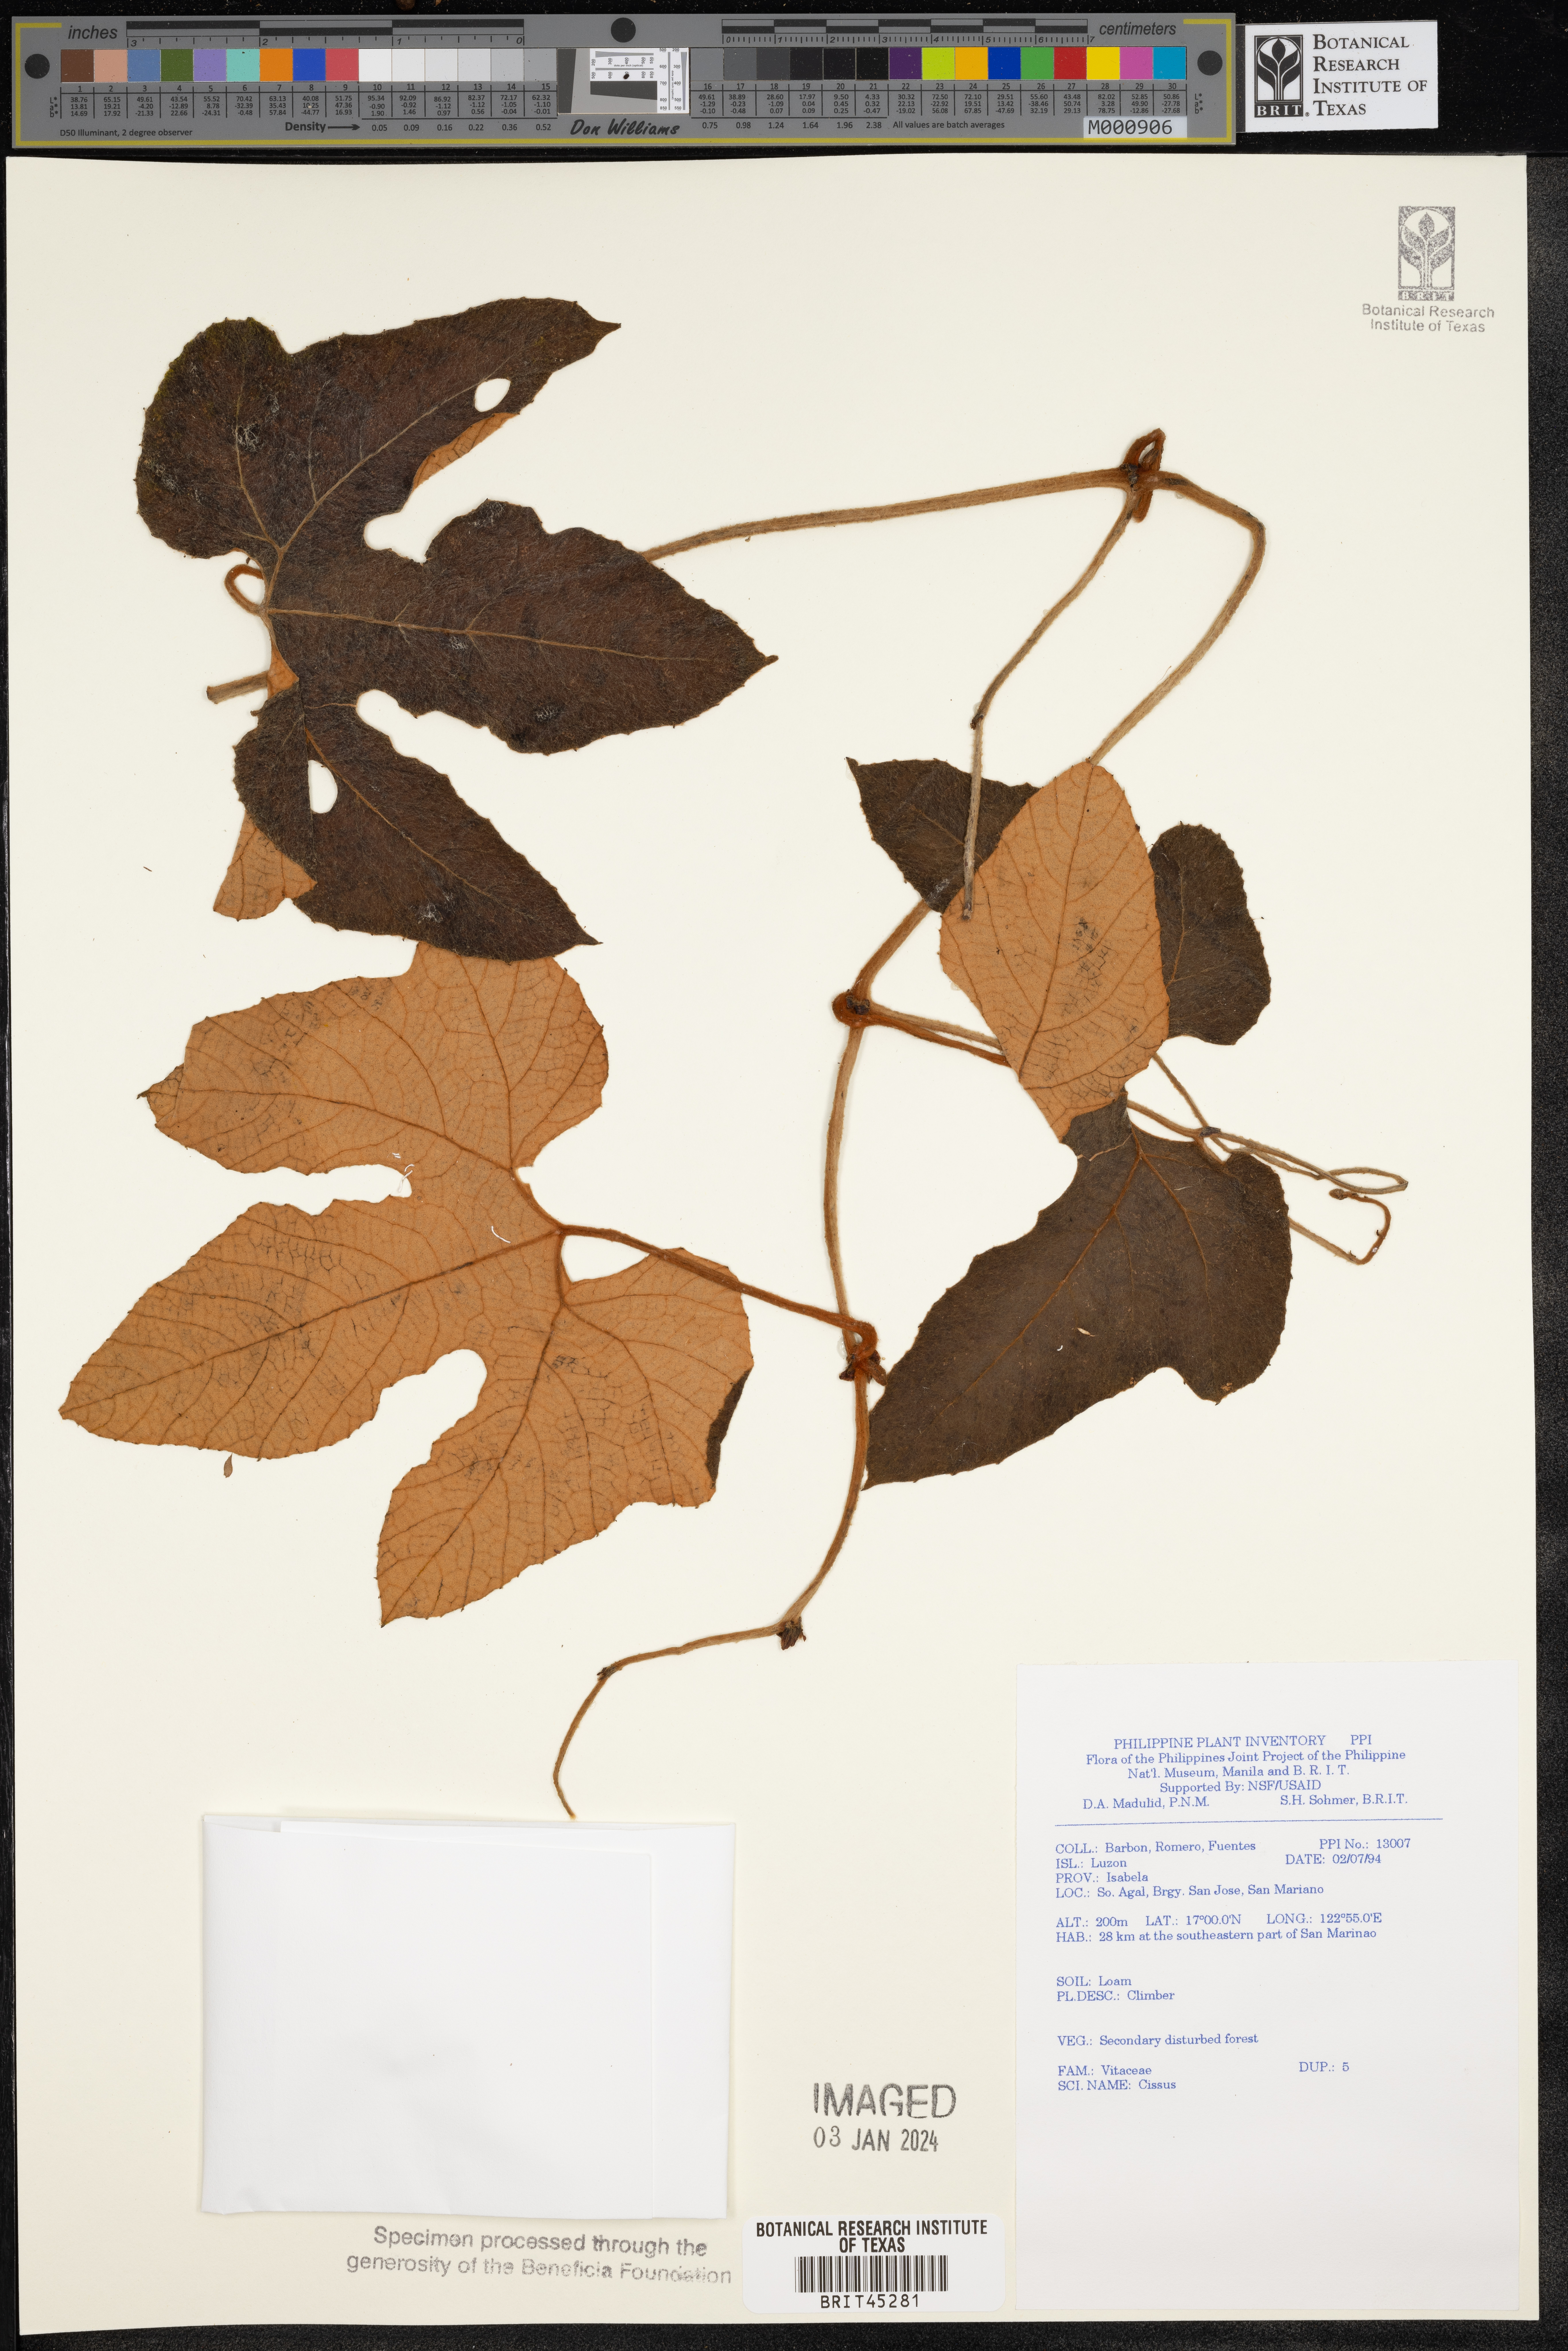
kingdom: Plantae
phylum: Tracheophyta
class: Magnoliopsida
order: Vitales
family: Vitaceae
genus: Cissus
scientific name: Cissus
